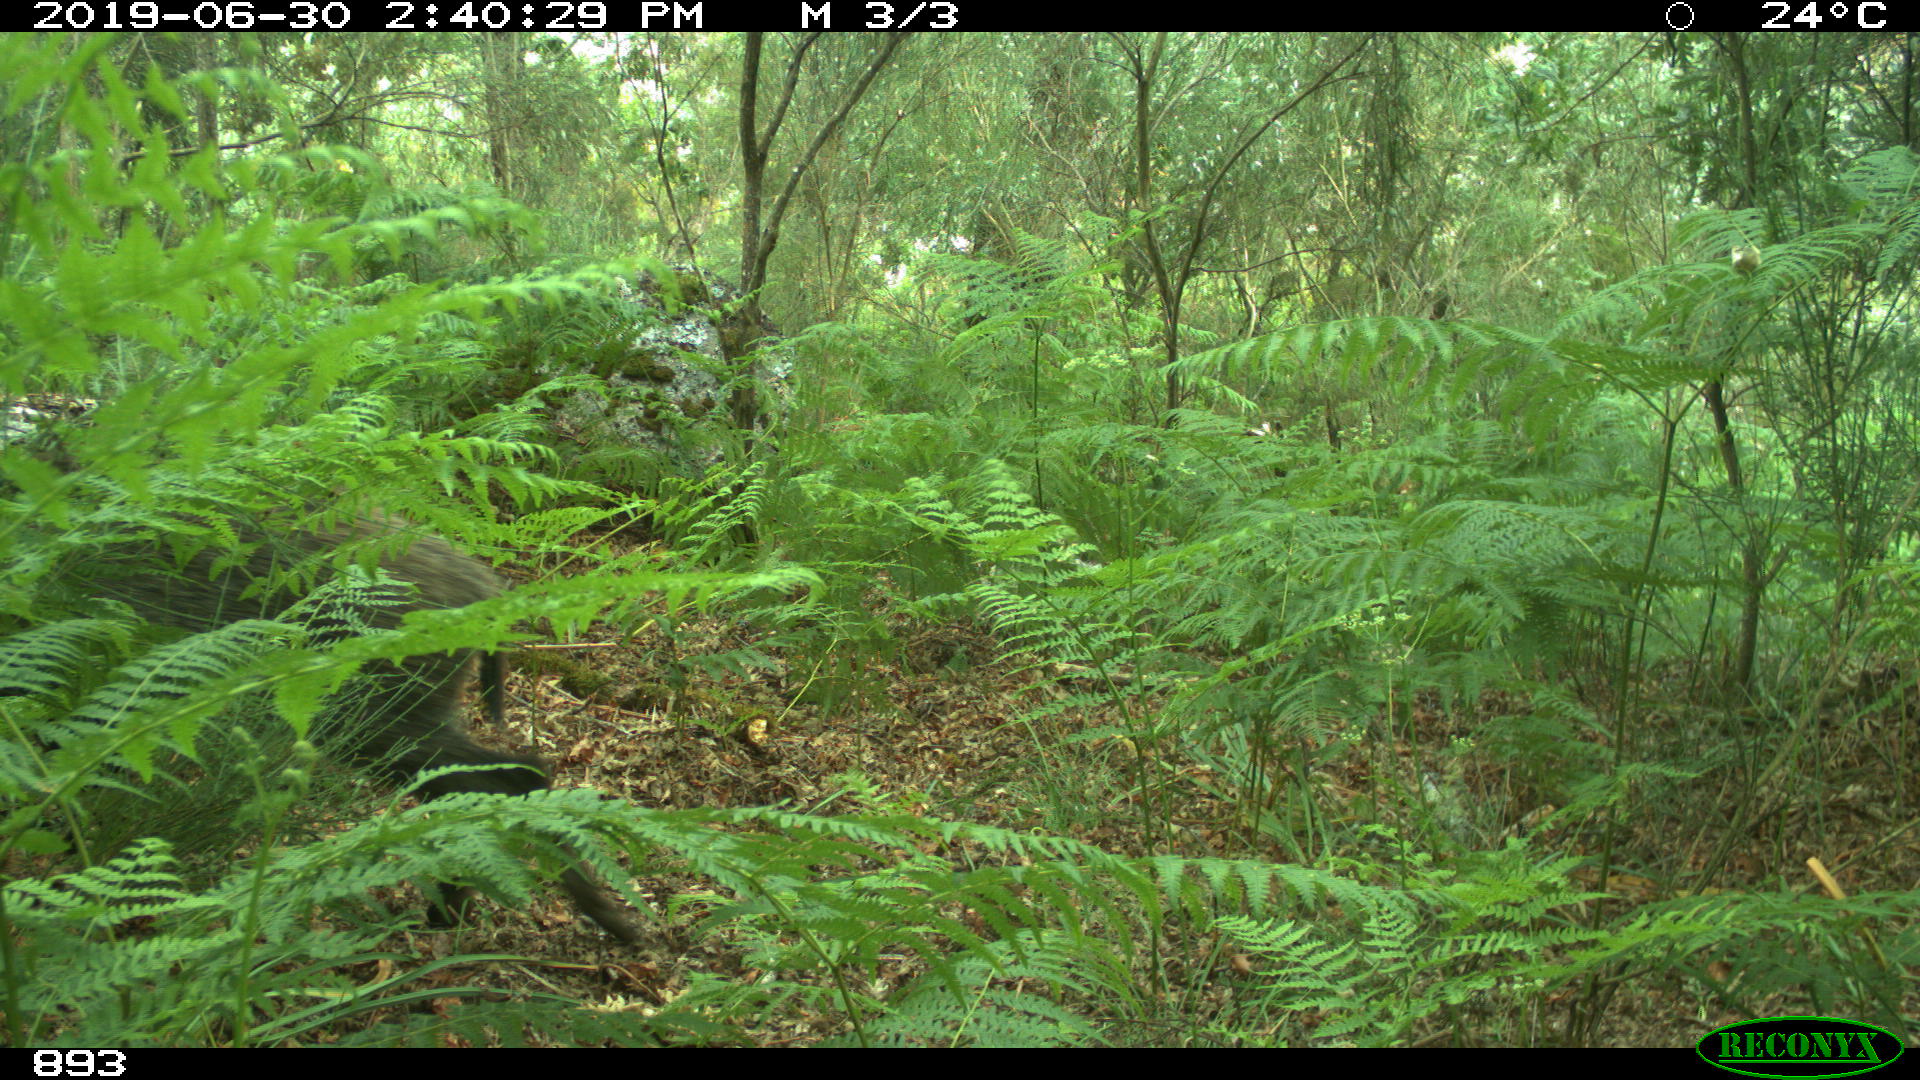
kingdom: Animalia
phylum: Chordata
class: Mammalia
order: Artiodactyla
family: Suidae
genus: Sus
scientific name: Sus scrofa
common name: Wild boar
